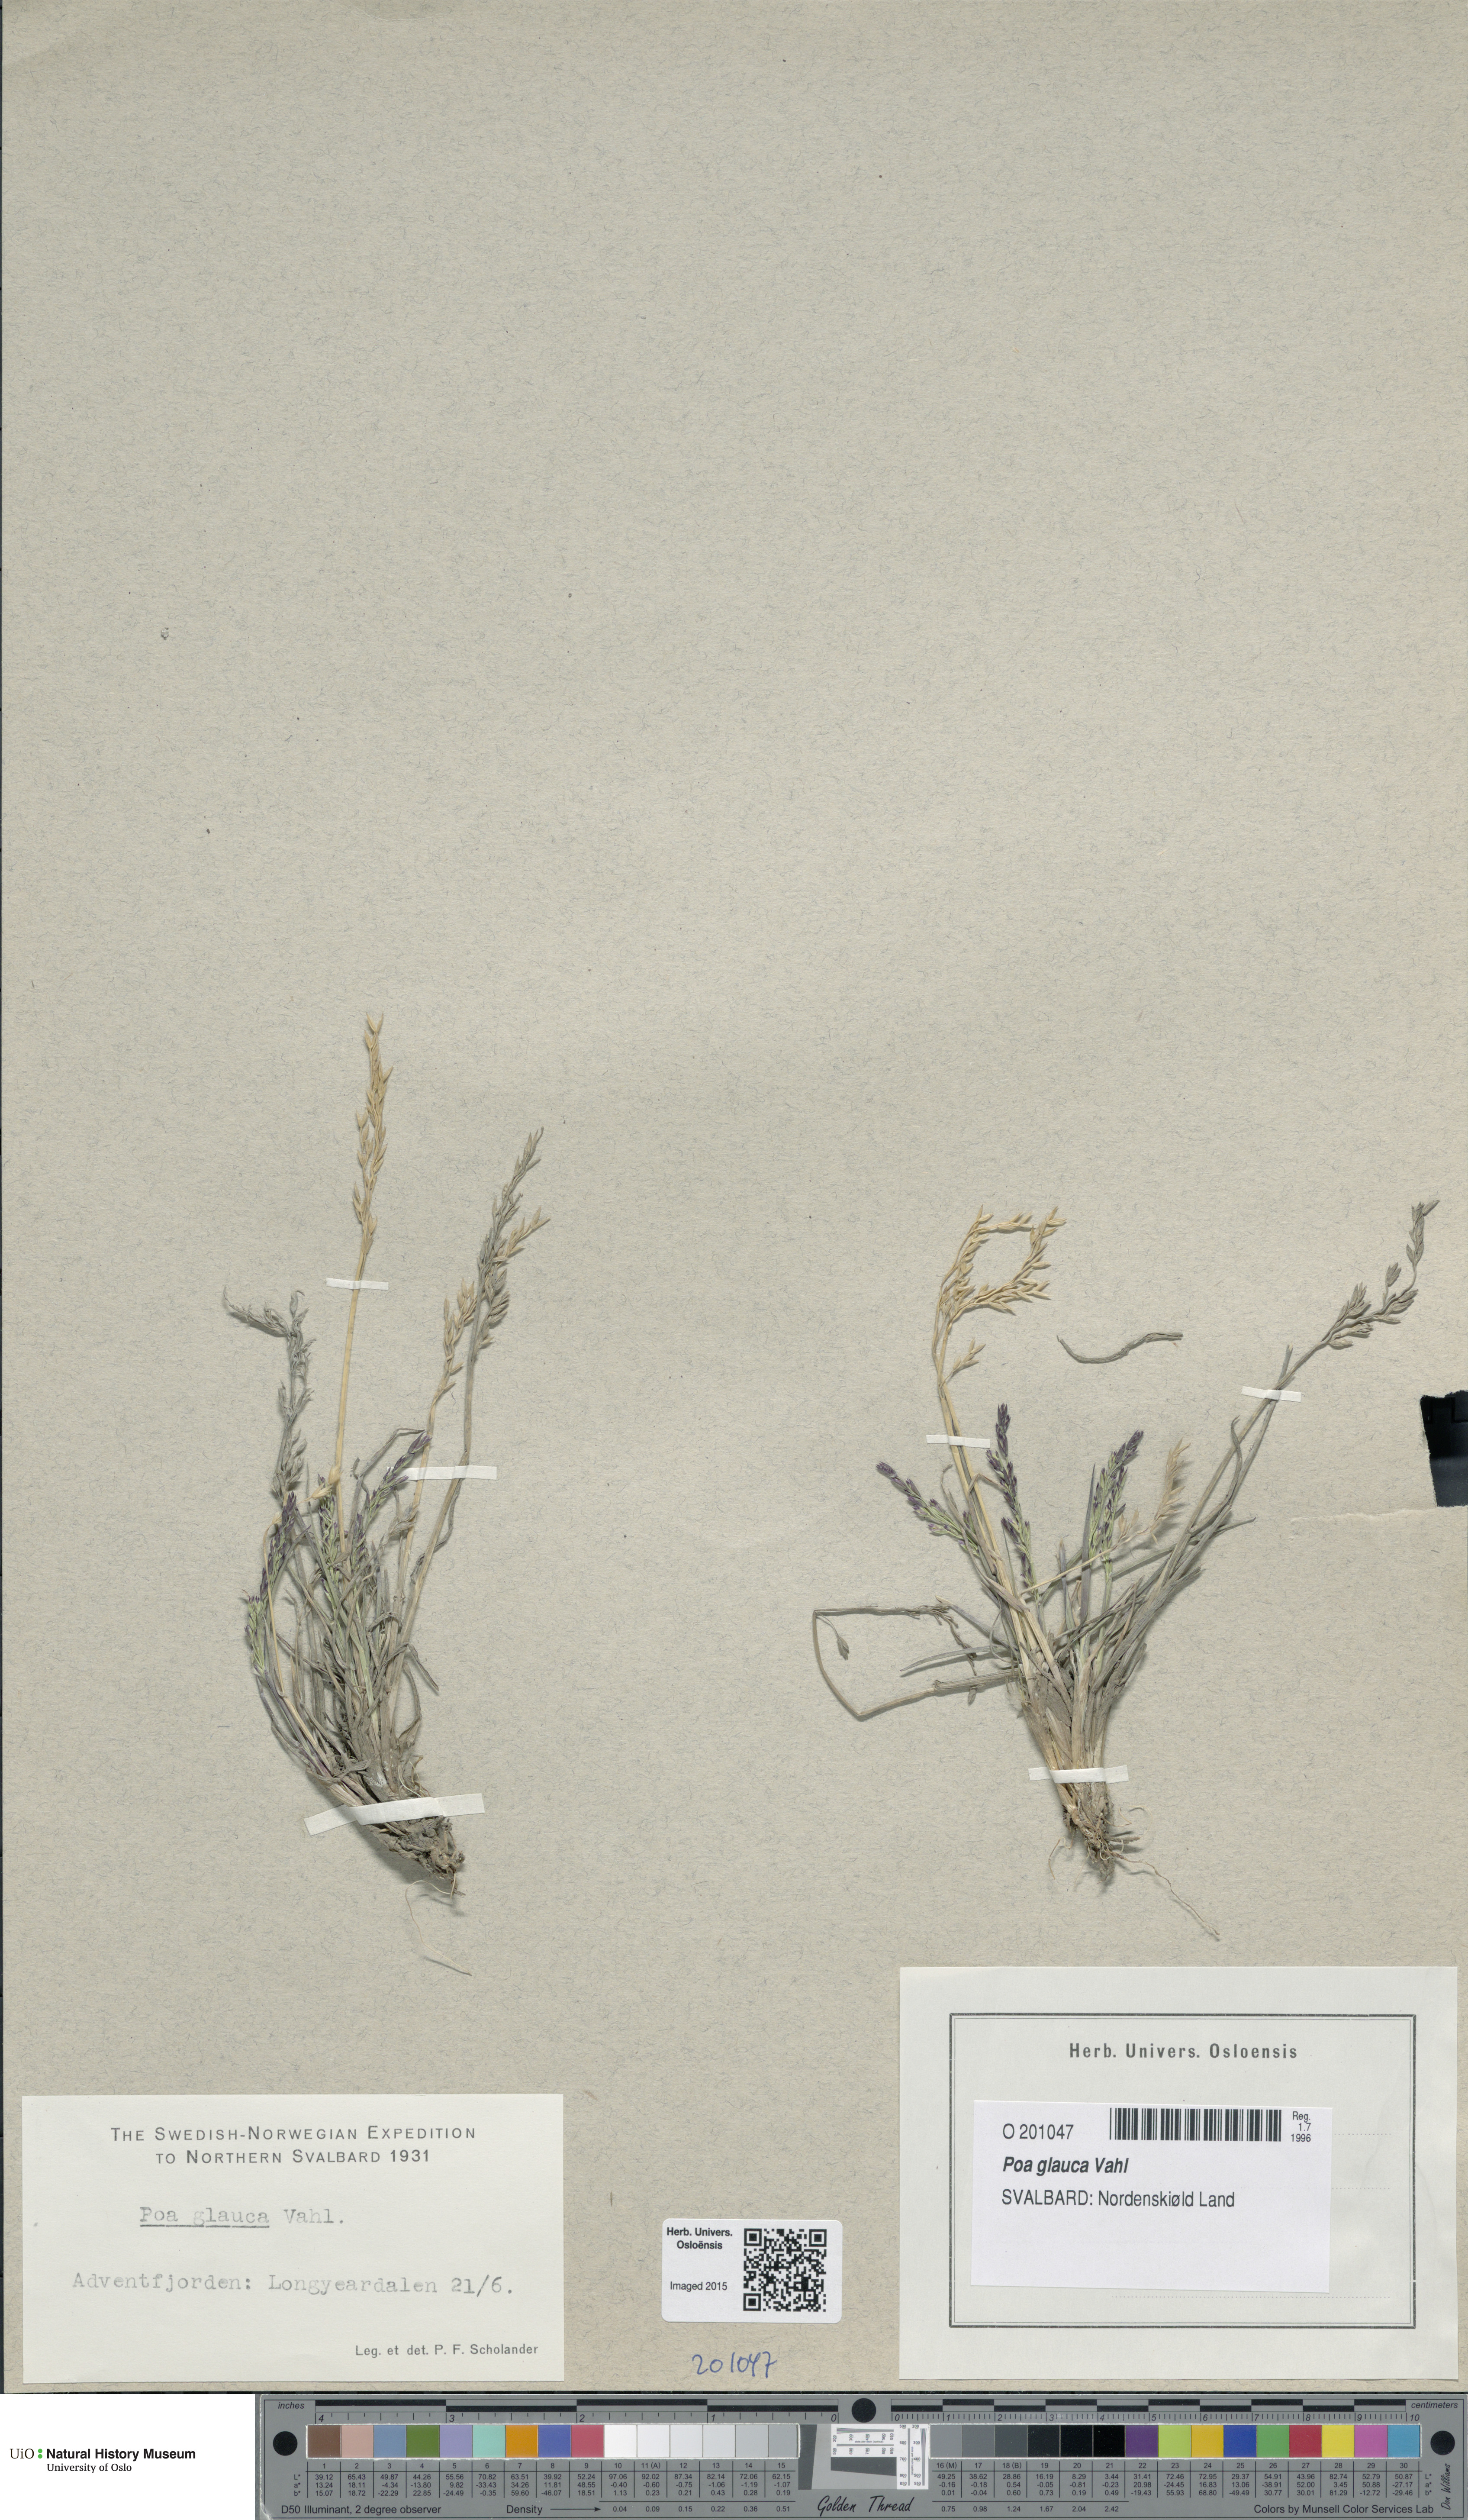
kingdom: Plantae
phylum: Tracheophyta
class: Liliopsida
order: Poales
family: Poaceae
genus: Poa
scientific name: Poa glauca
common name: Glaucous bluegrass
